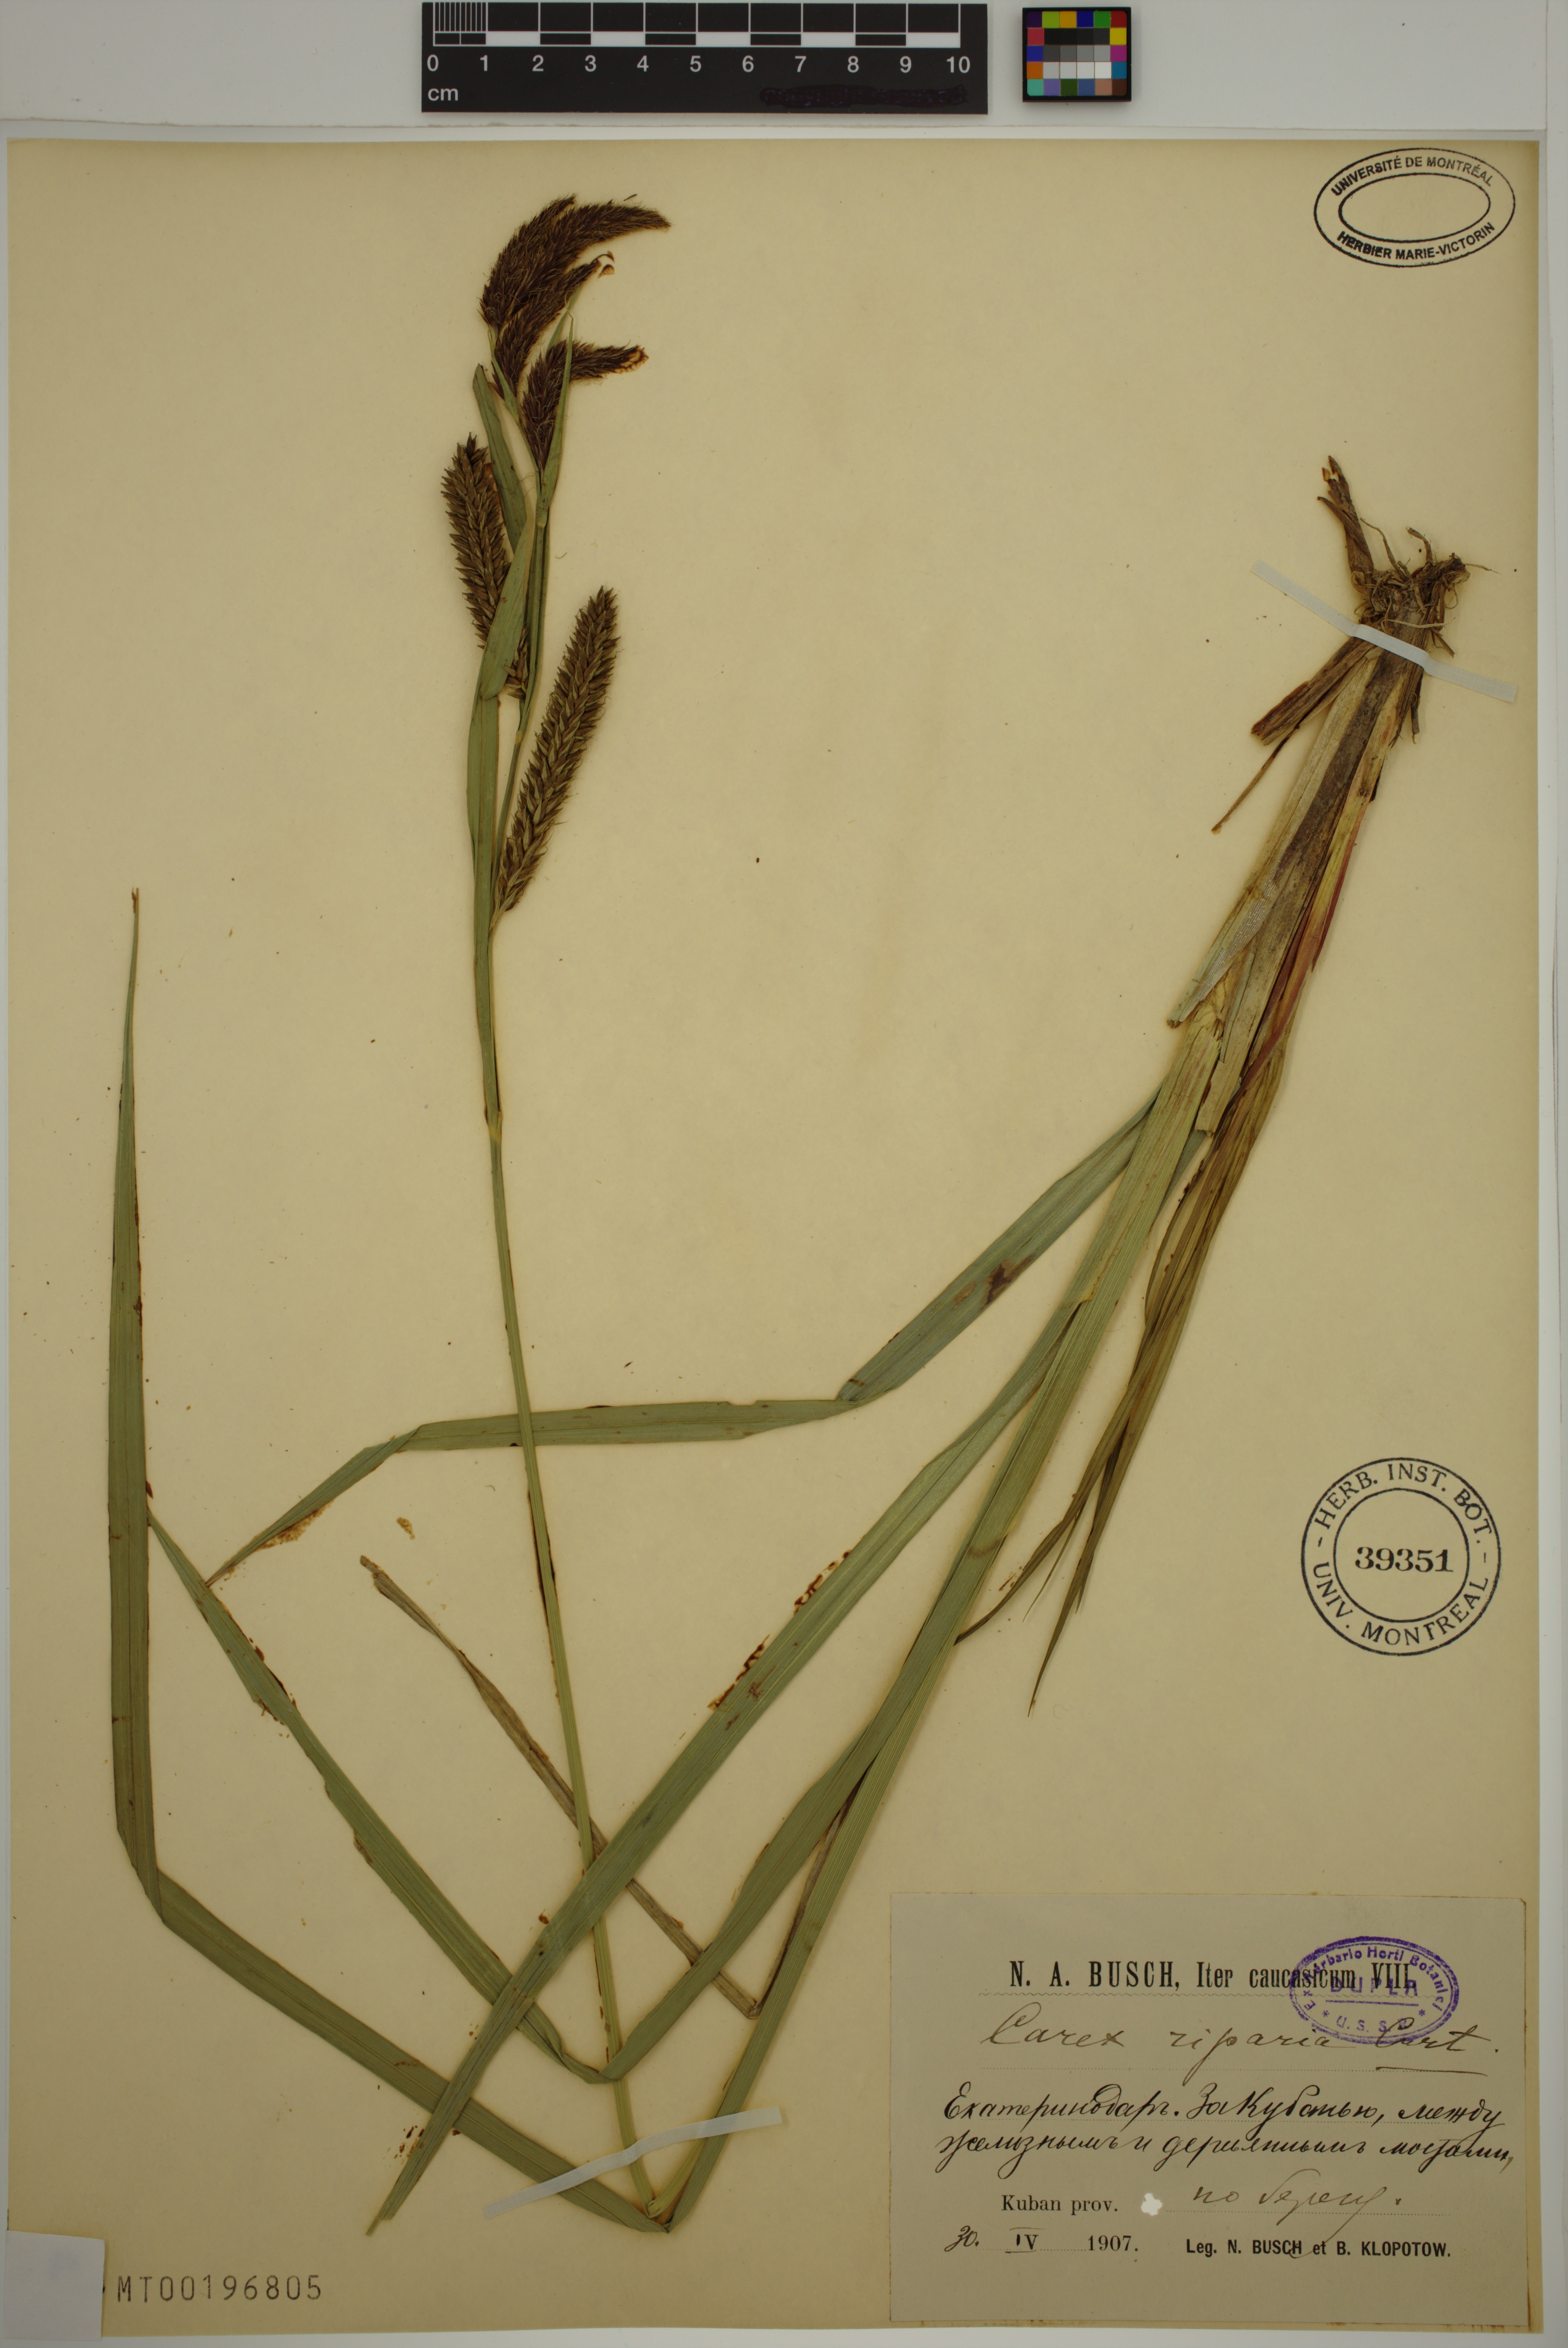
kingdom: Plantae
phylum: Tracheophyta
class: Liliopsida
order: Poales
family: Cyperaceae
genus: Carex
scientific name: Carex riparia
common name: Greater pond-sedge
